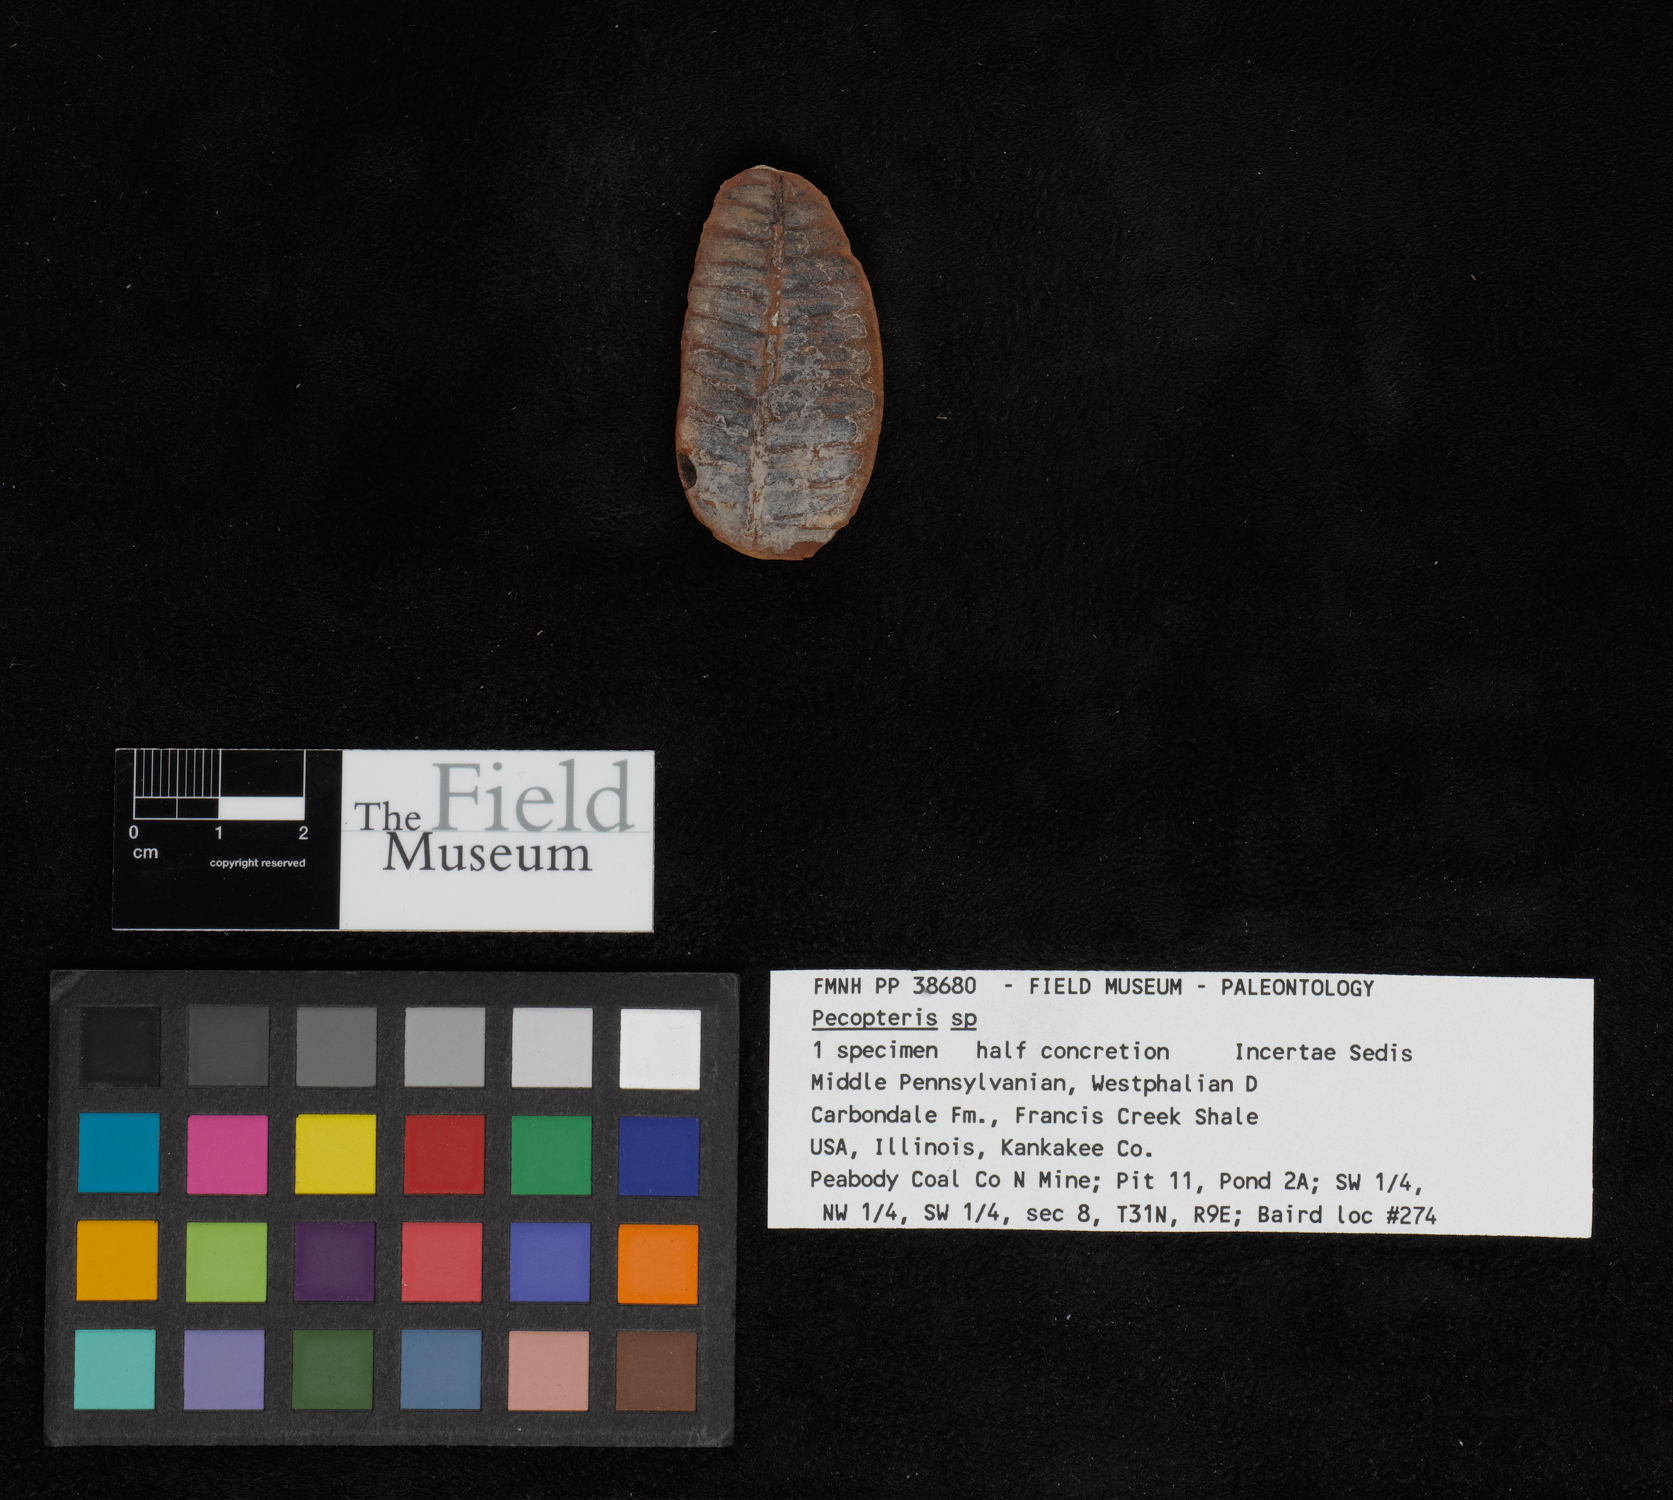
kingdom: Plantae
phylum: Tracheophyta
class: Polypodiopsida
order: Marattiales
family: Asterothecaceae
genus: Pecopteris
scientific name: Pecopteris
